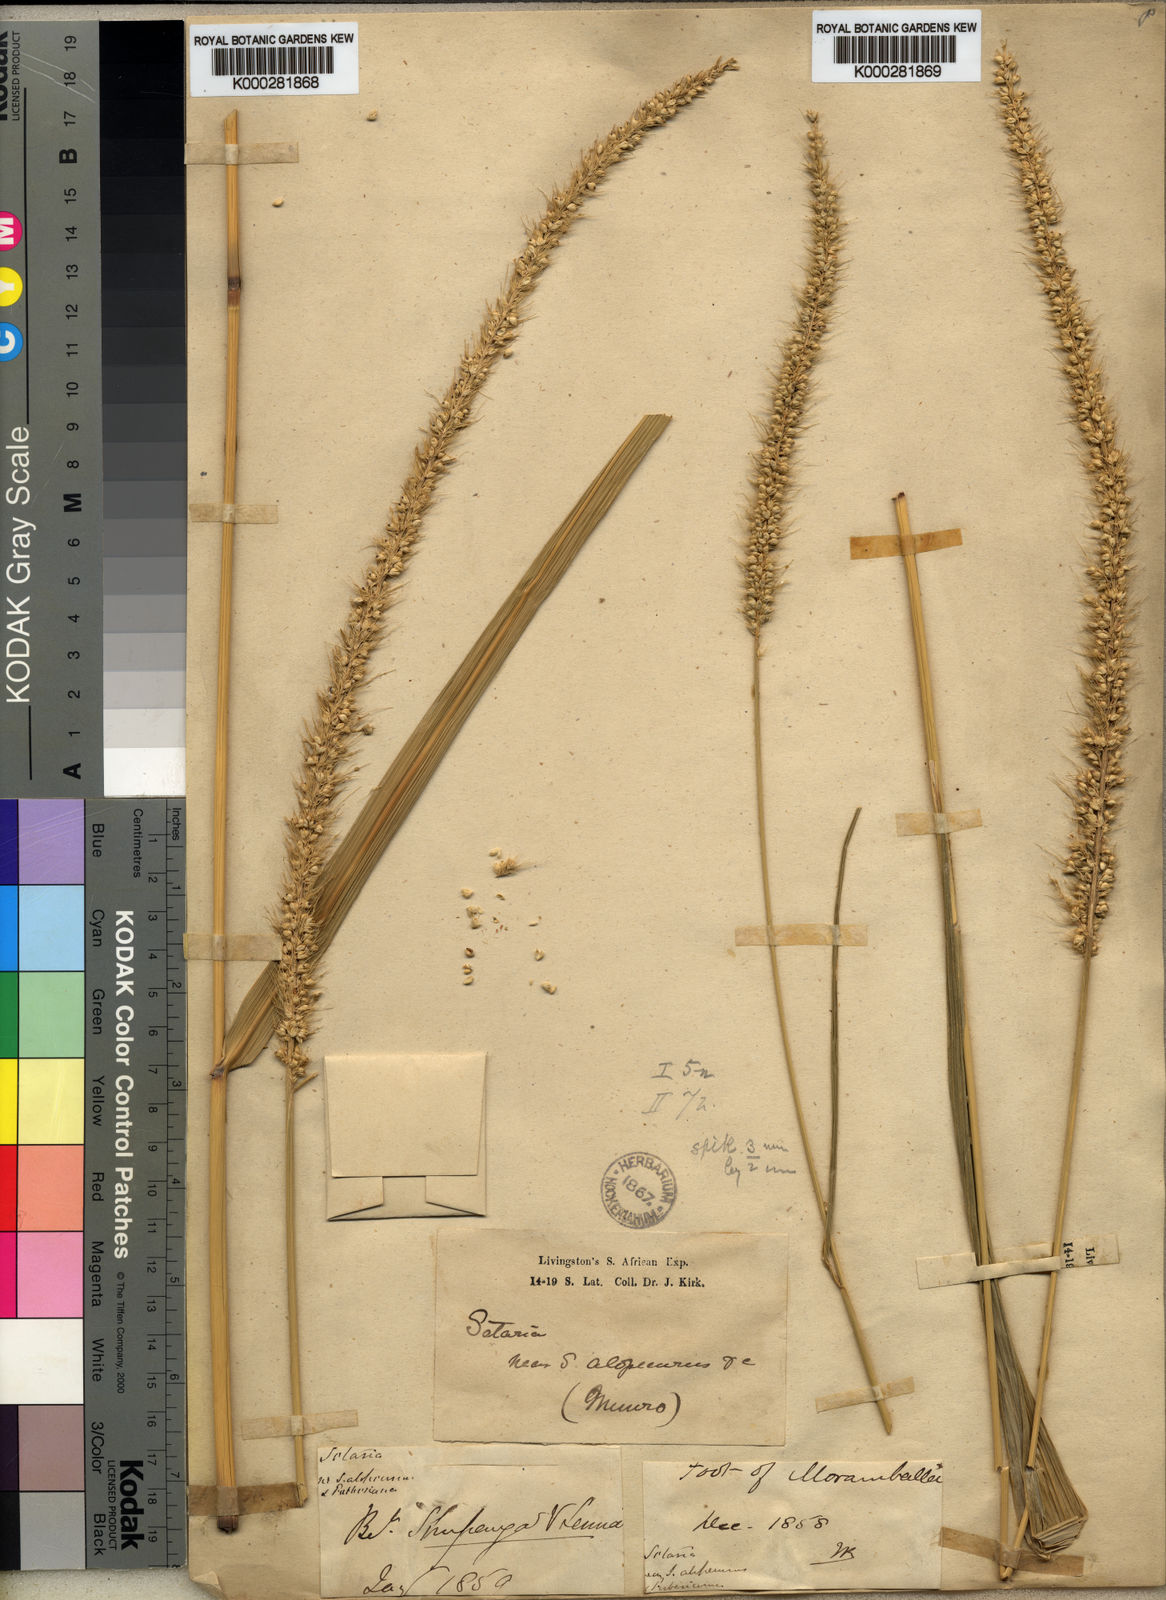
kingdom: Plantae
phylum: Tracheophyta
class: Liliopsida
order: Poales
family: Poaceae
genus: Setaria
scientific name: Setaria incrassata
